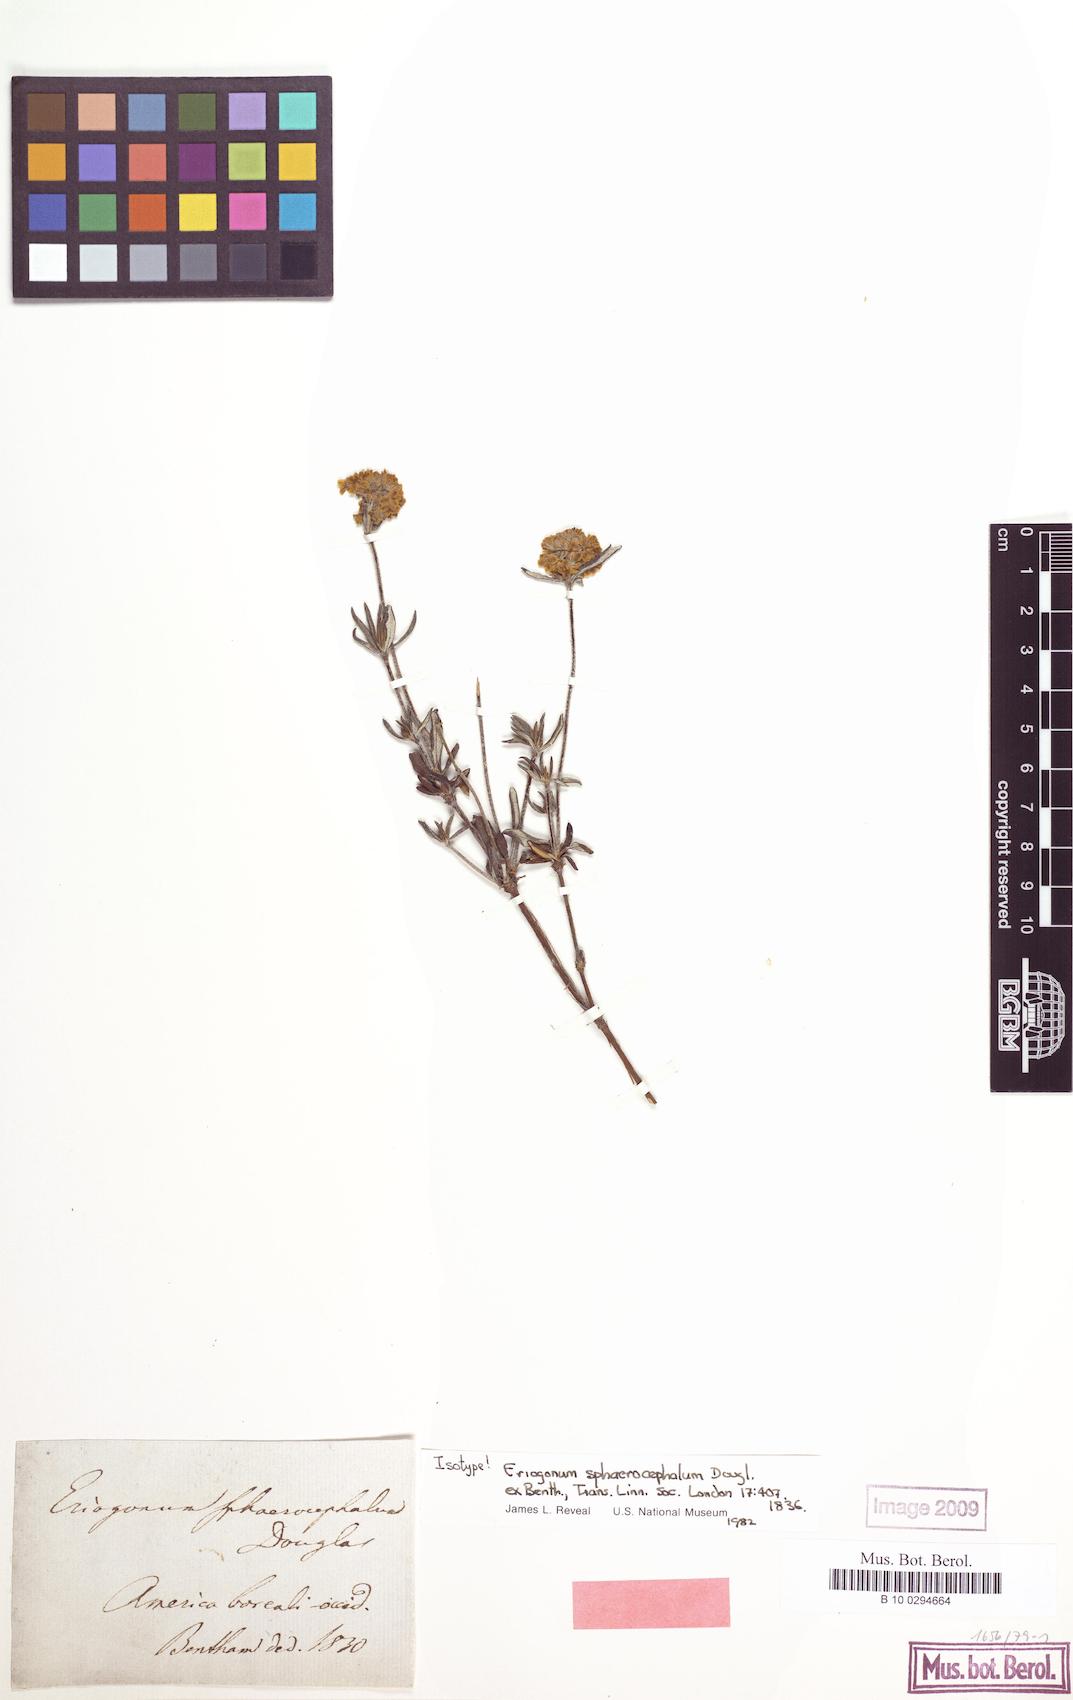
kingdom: Plantae
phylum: Tracheophyta
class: Magnoliopsida
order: Caryophyllales
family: Polygonaceae
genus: Eriogonum
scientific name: Eriogonum sphaerocephalum
